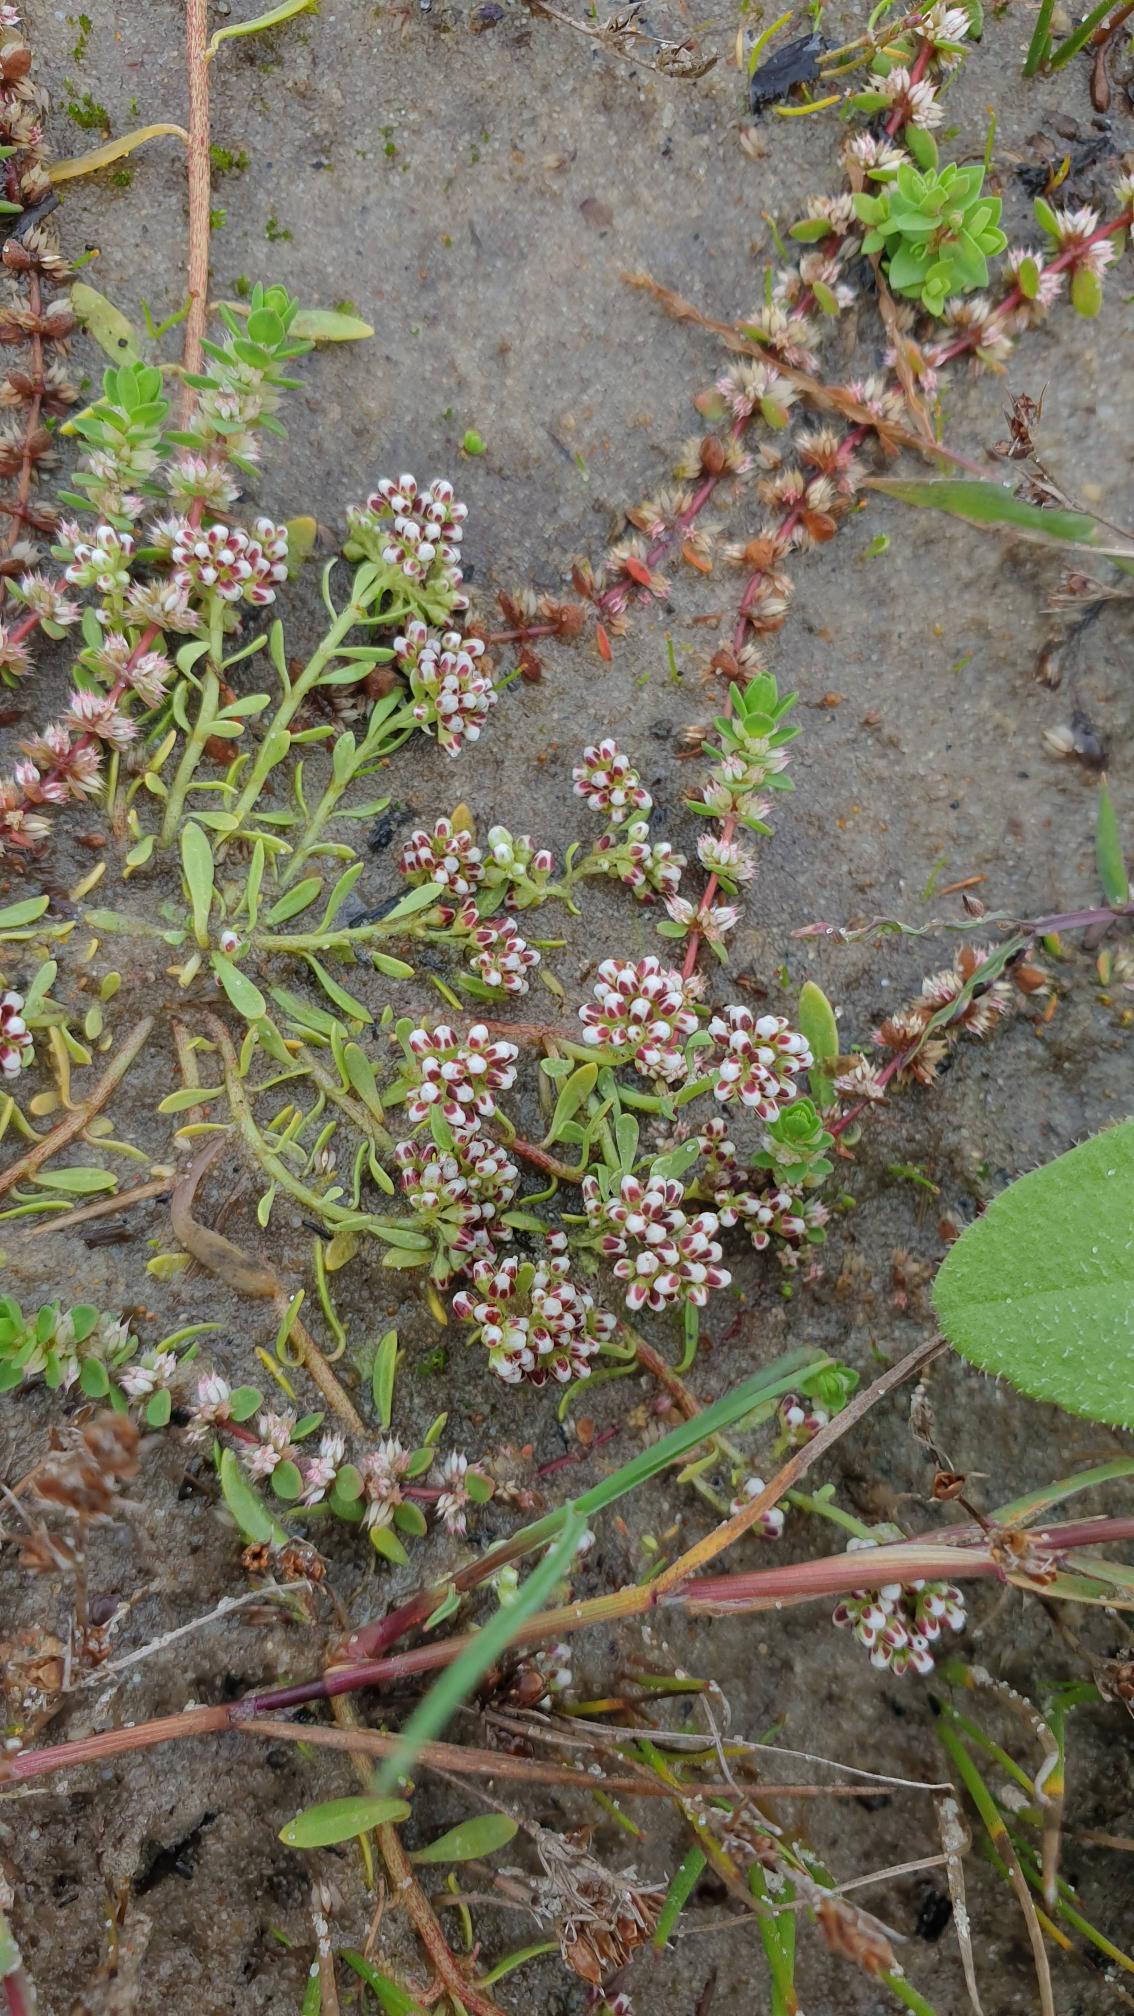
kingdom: Plantae
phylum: Tracheophyta
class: Magnoliopsida
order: Caryophyllales
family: Caryophyllaceae
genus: Corrigiola
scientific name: Corrigiola litoralis
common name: Skorem
